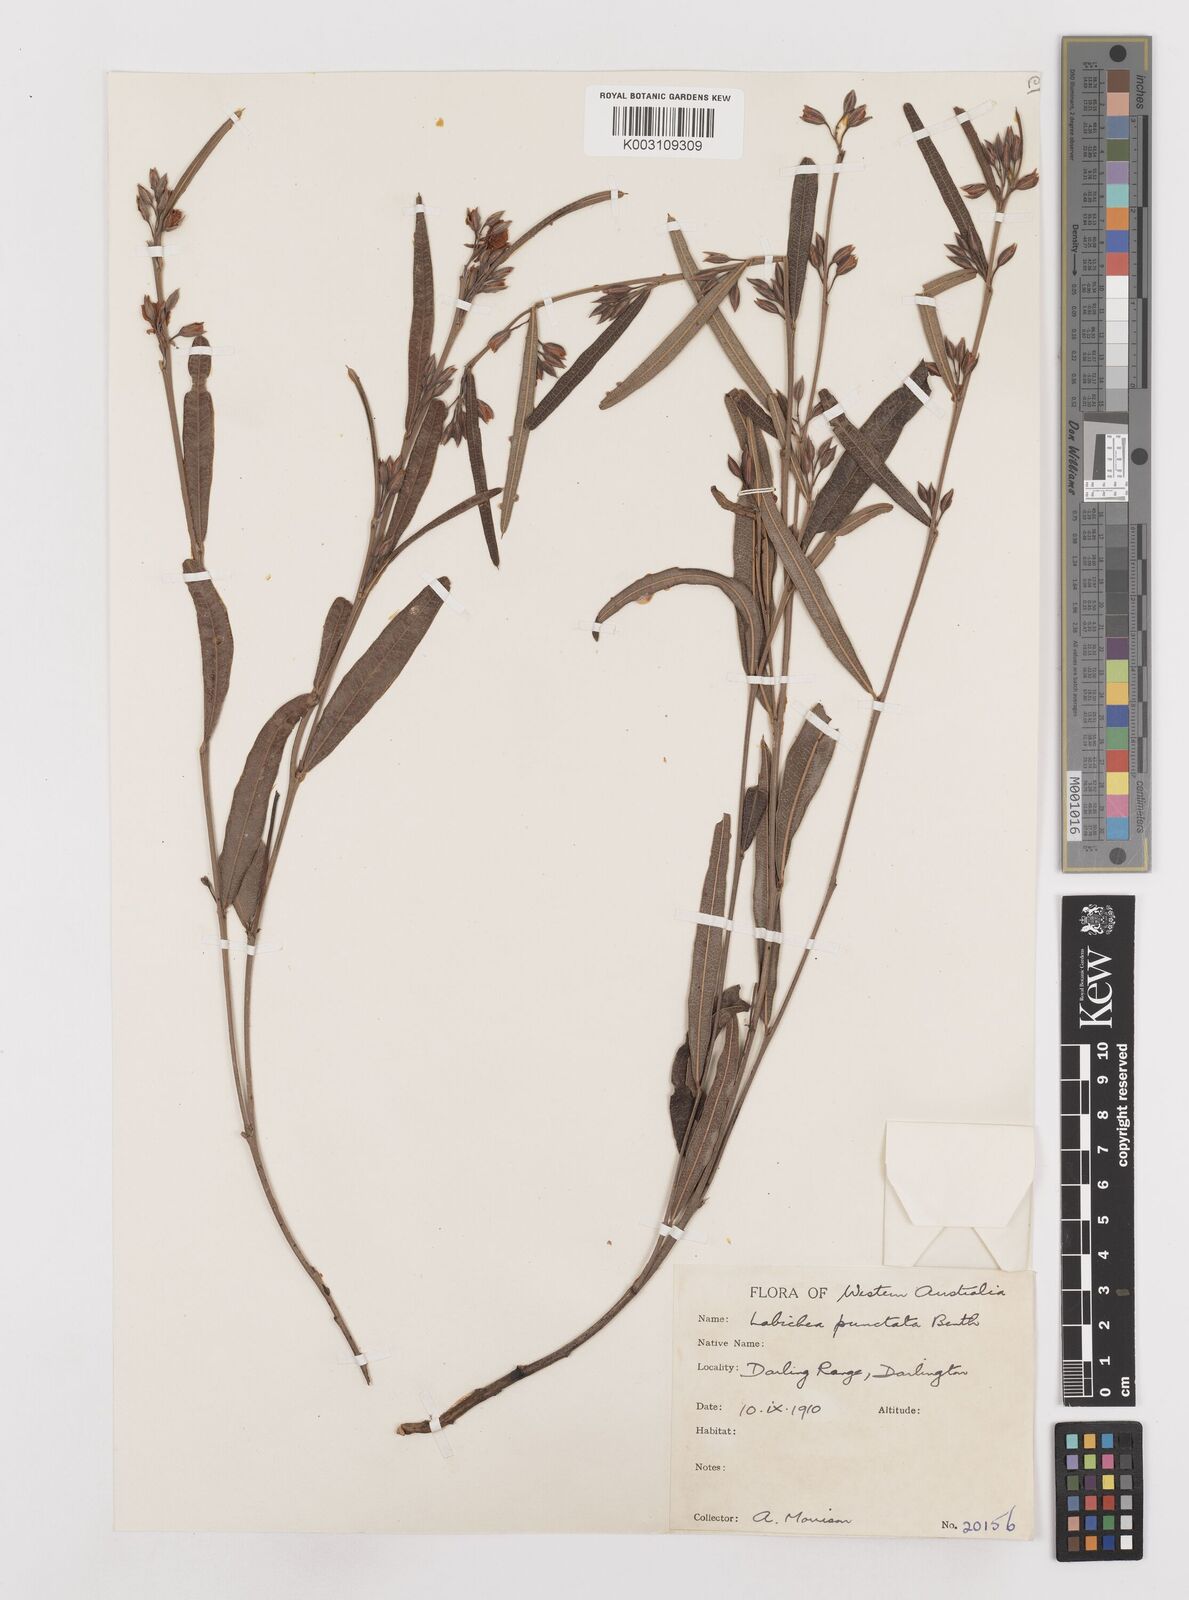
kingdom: Plantae
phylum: Tracheophyta
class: Magnoliopsida
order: Fabales
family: Fabaceae
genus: Labichea
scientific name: Labichea punctata
